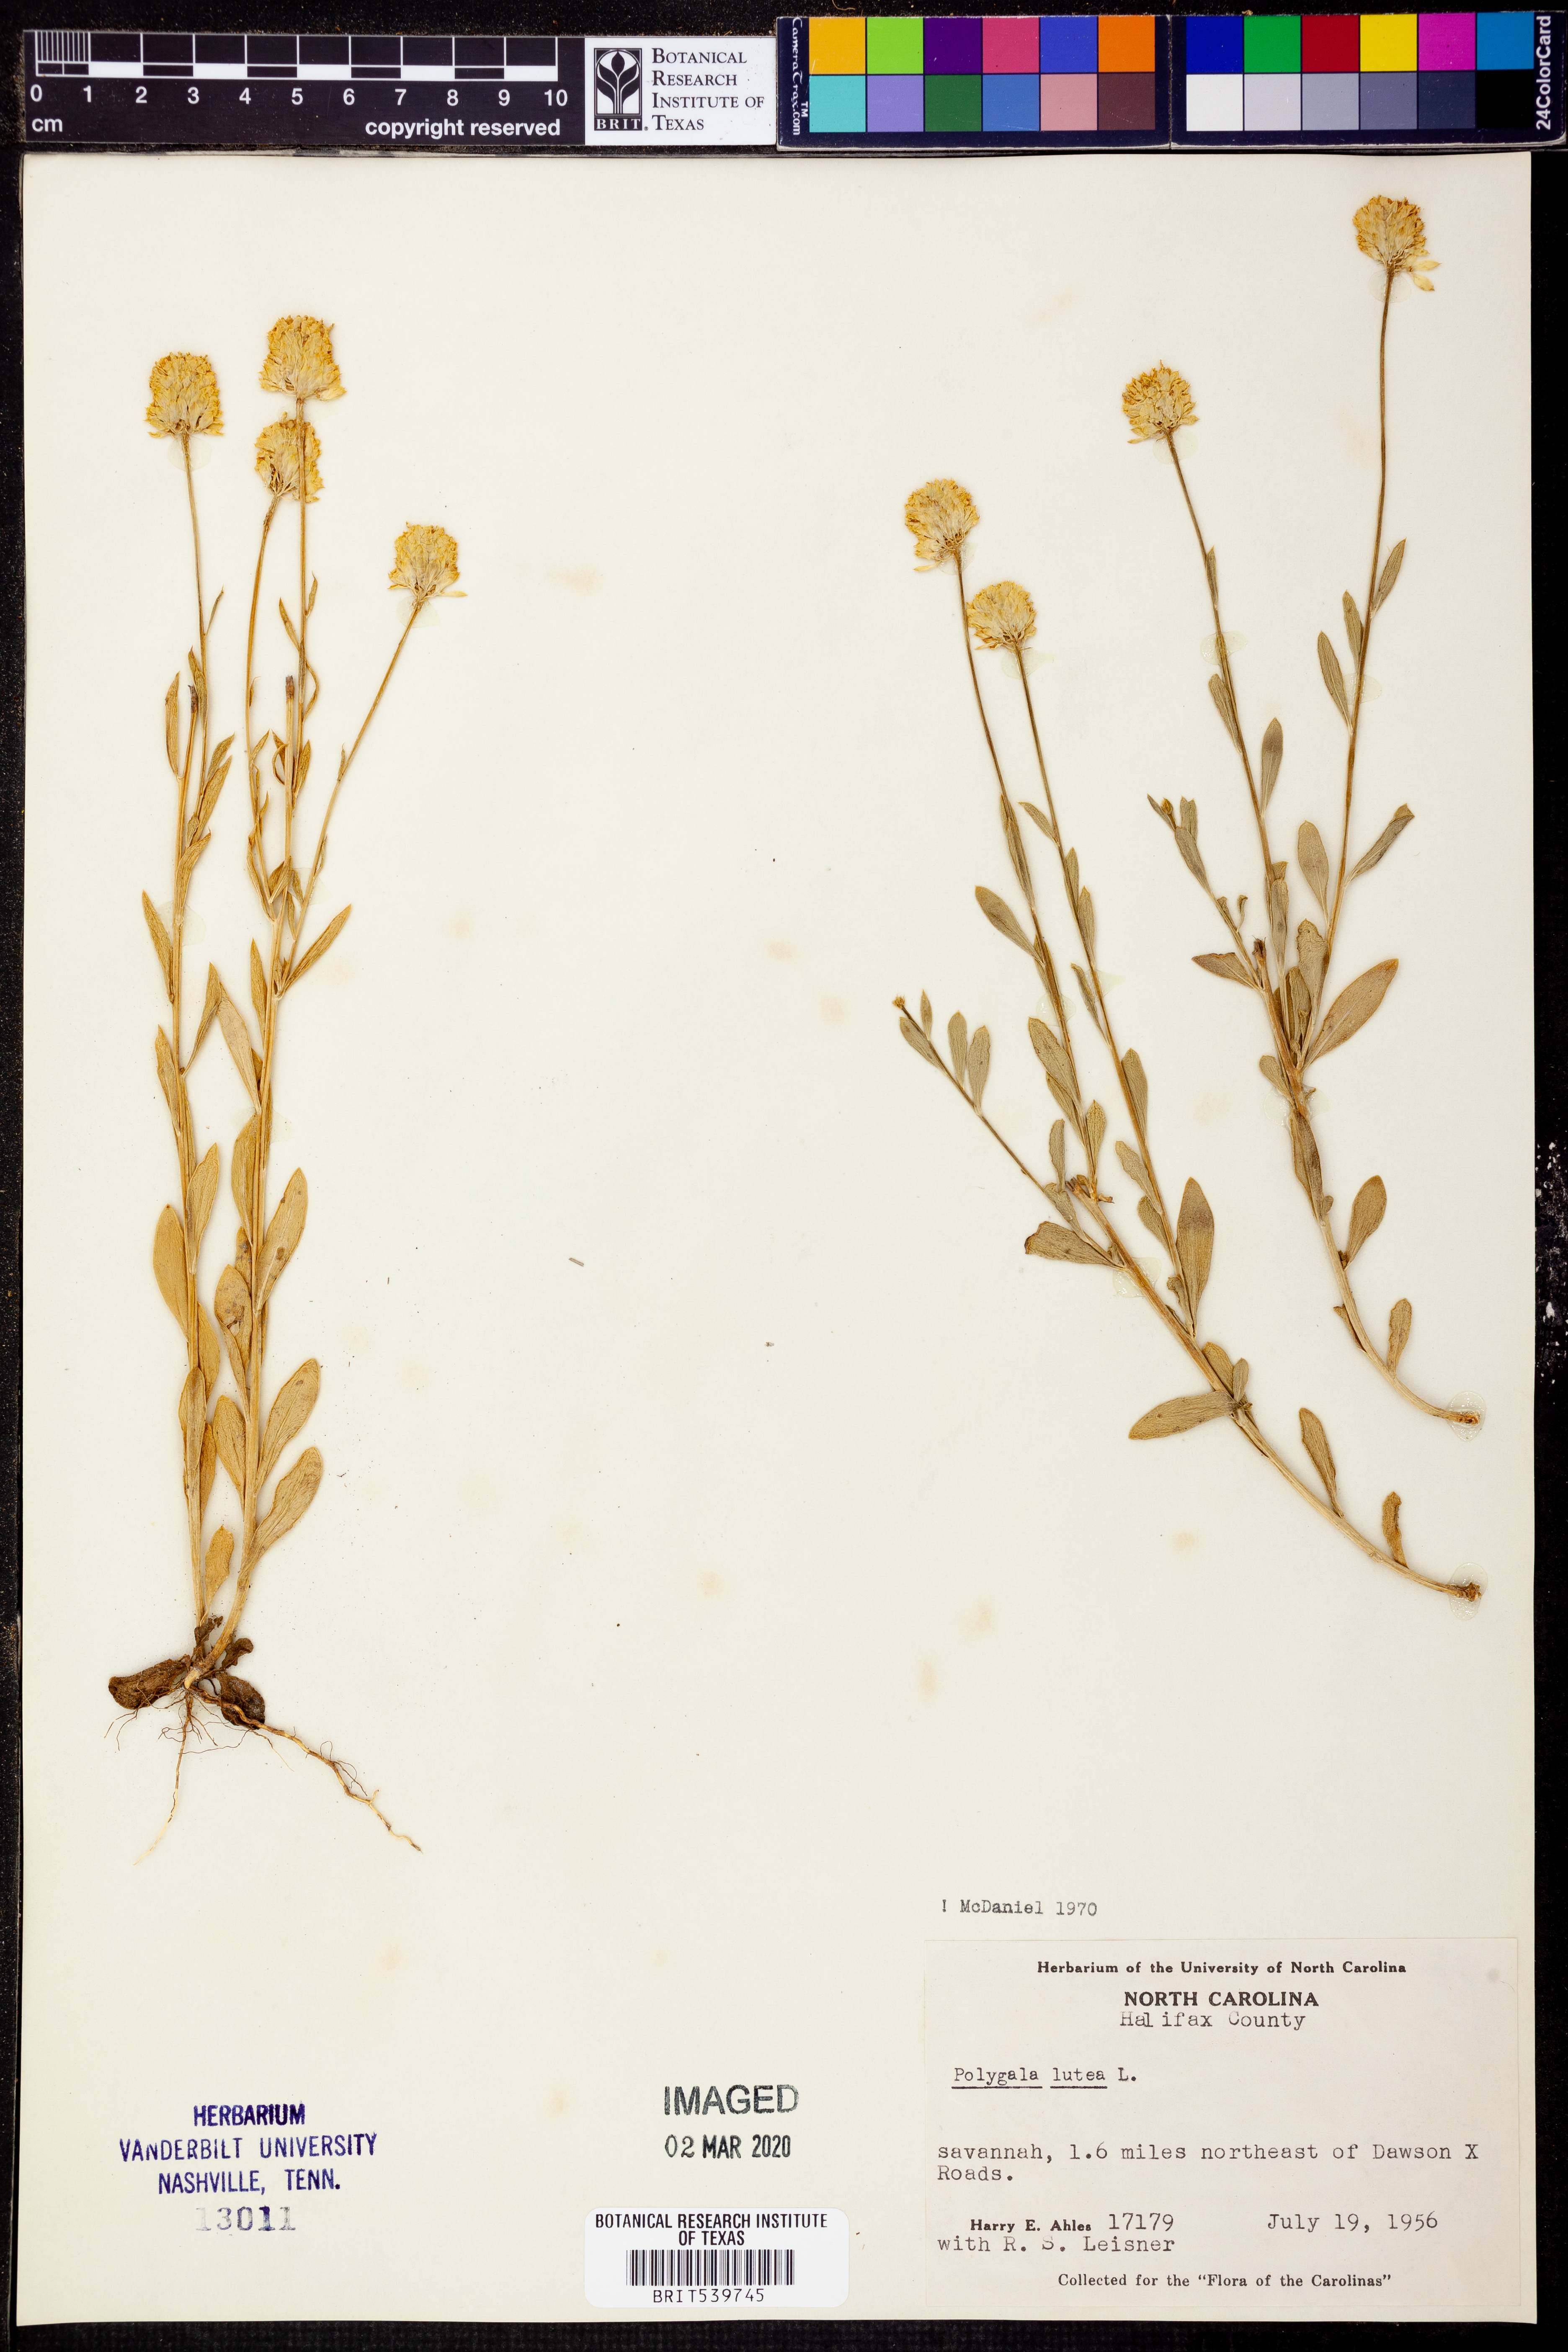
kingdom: Plantae
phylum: Tracheophyta
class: Magnoliopsida
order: Fabales
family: Polygalaceae
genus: Polygala
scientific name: Polygala lutea
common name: Orange milkwort
